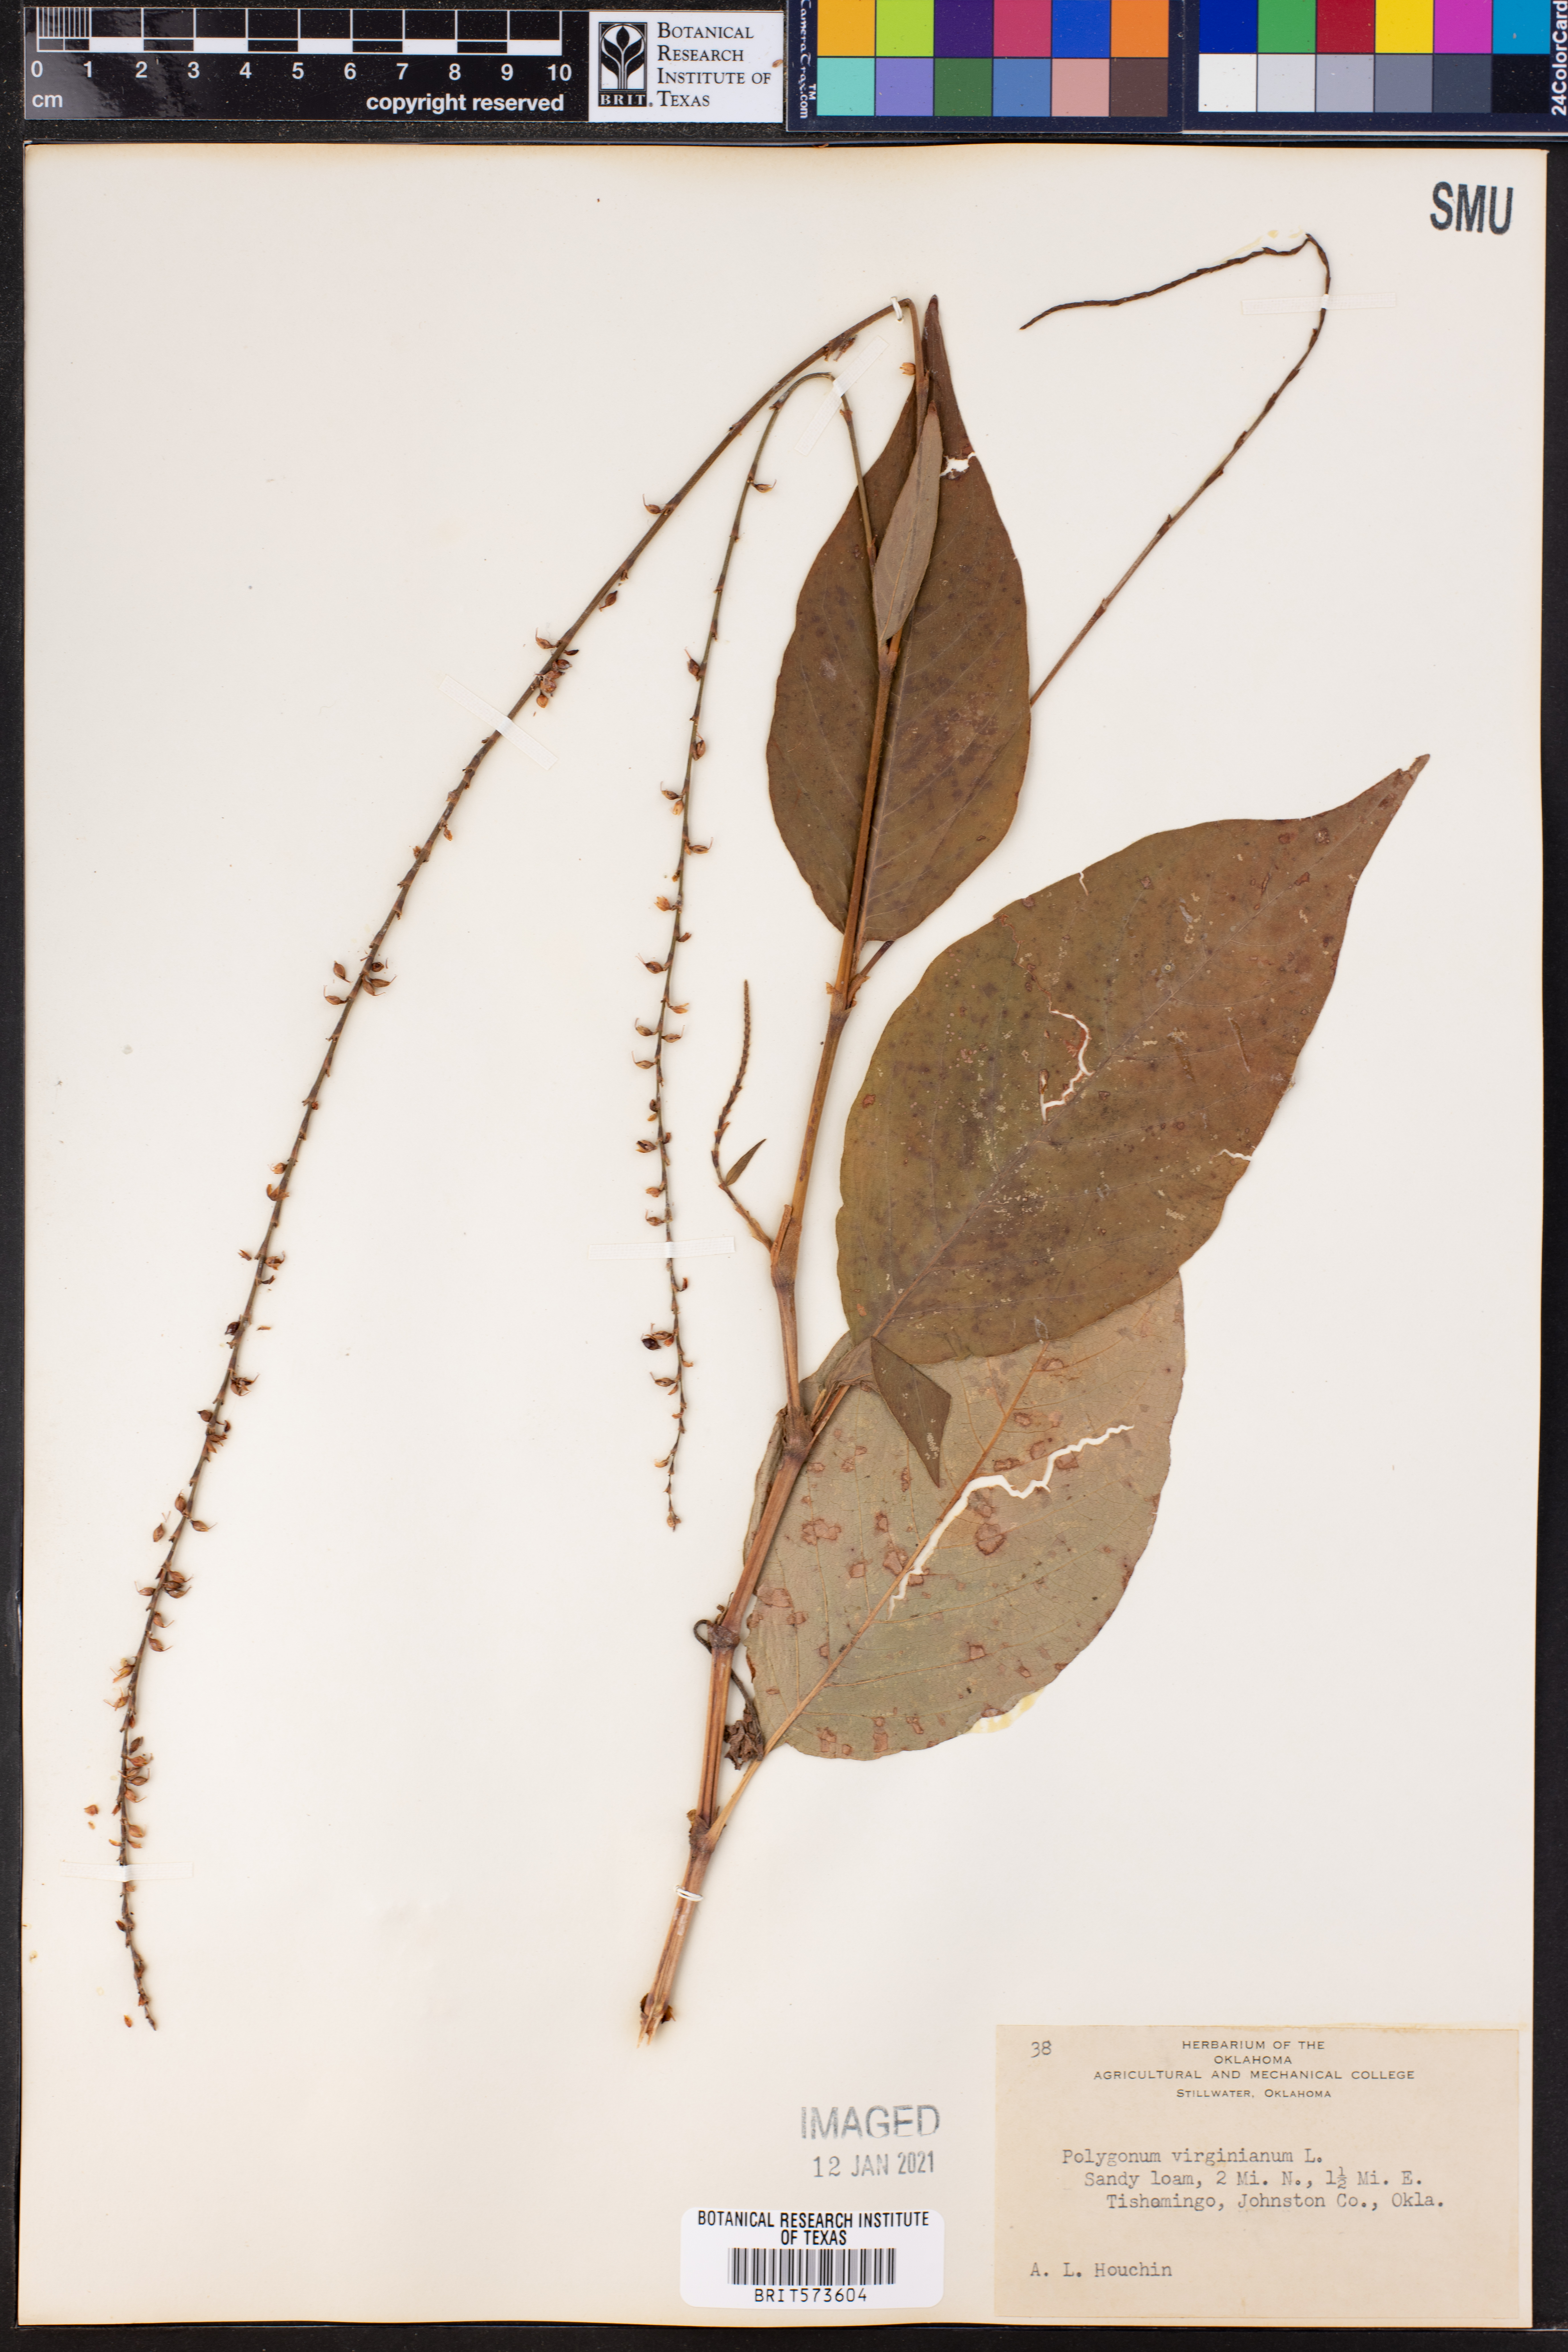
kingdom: Plantae
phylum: Tracheophyta
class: Magnoliopsida
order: Caryophyllales
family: Polygonaceae
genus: Persicaria
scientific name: Persicaria virginiana
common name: Jumpseed
